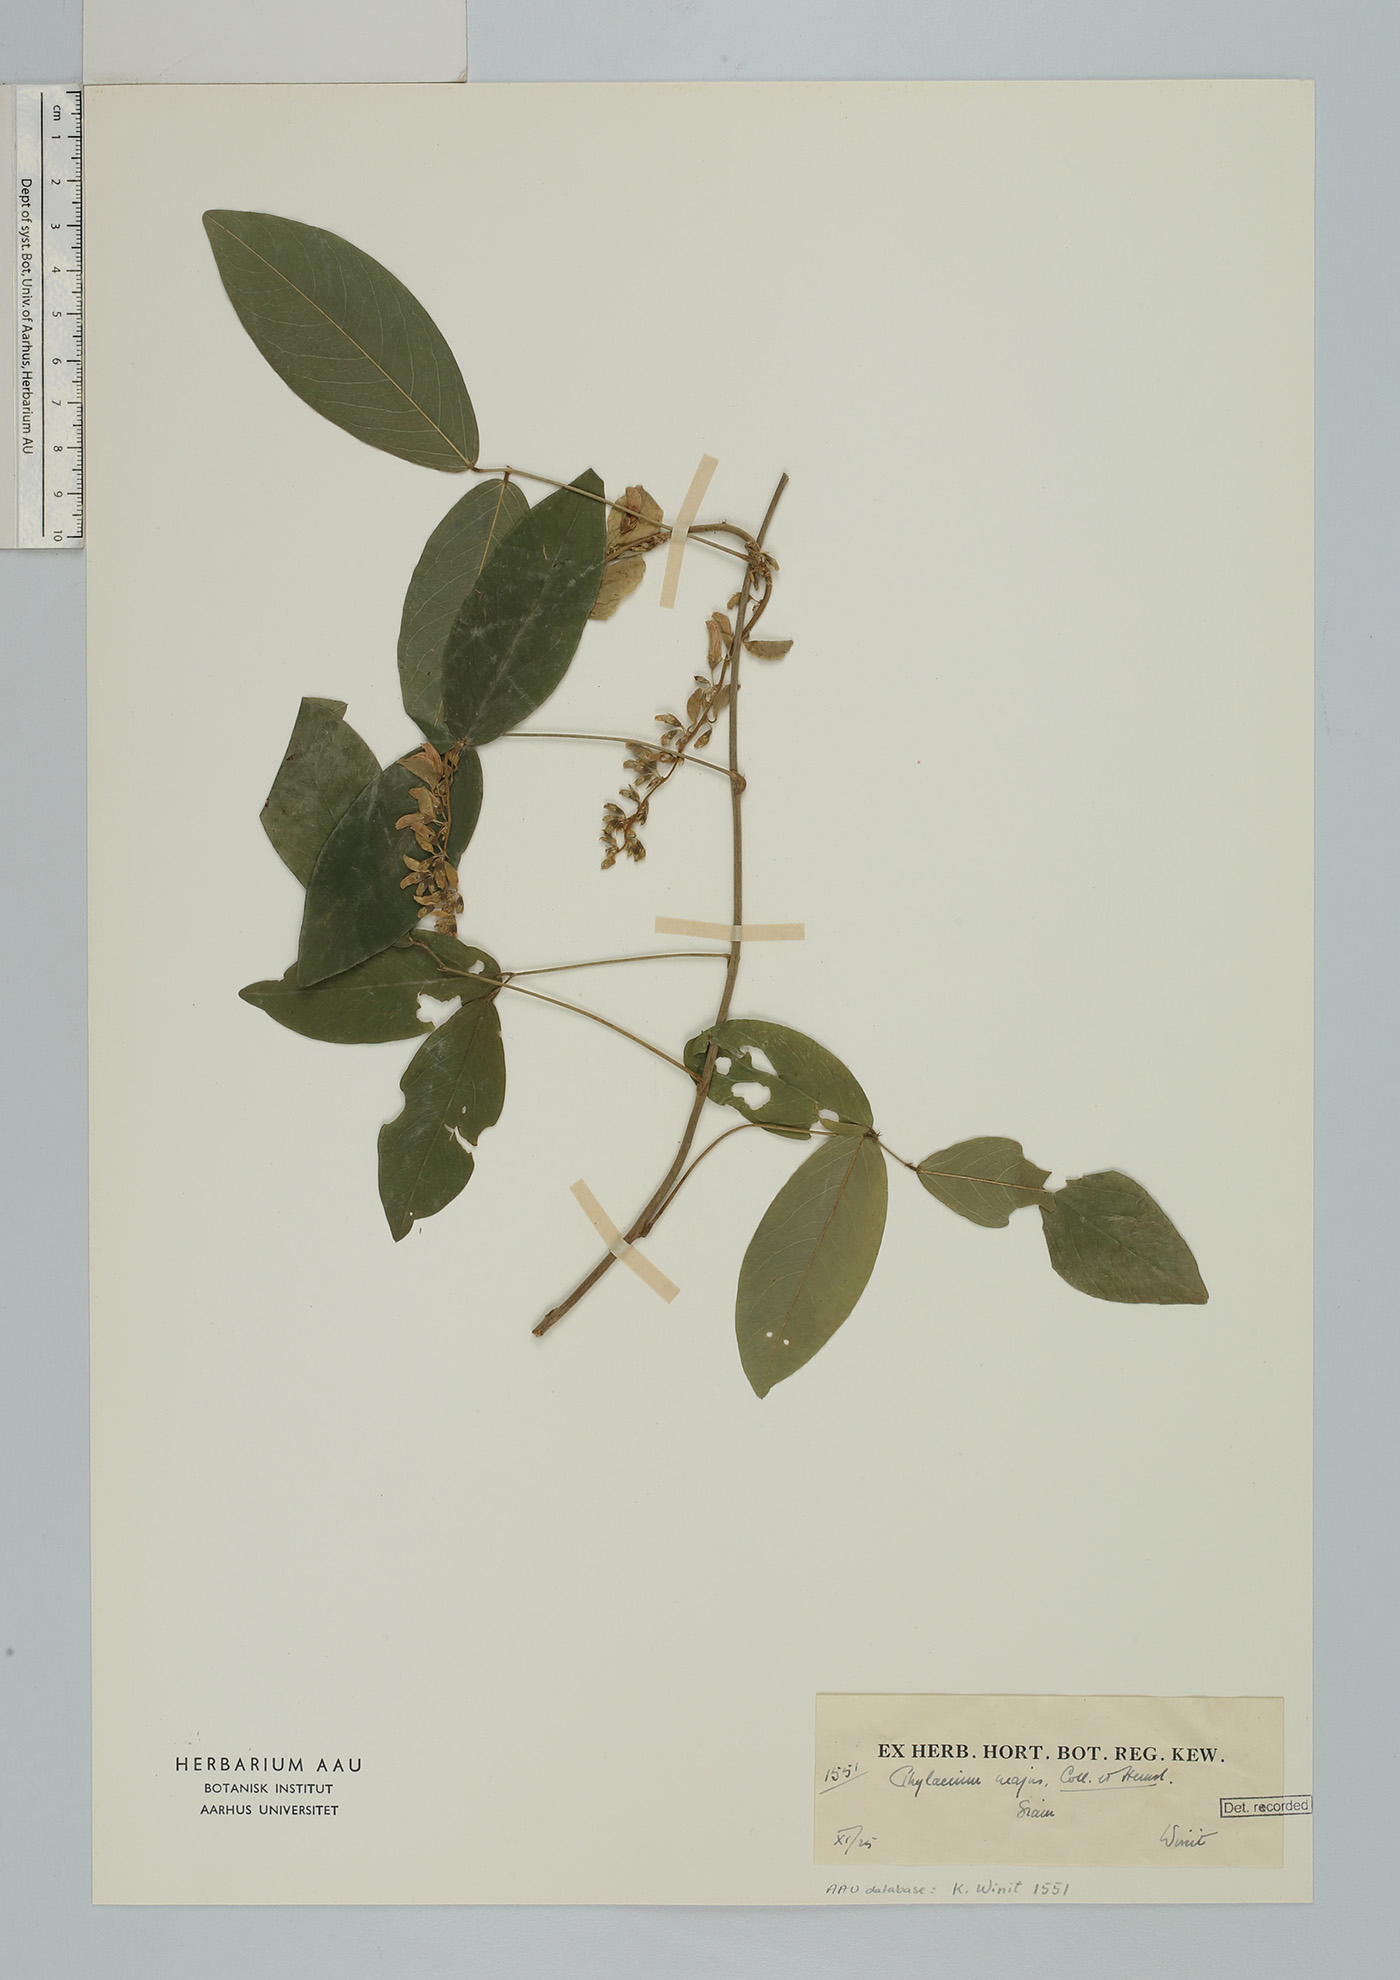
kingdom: Plantae
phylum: Tracheophyta
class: Magnoliopsida
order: Fabales
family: Fabaceae
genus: Phylacium
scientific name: Phylacium majus
